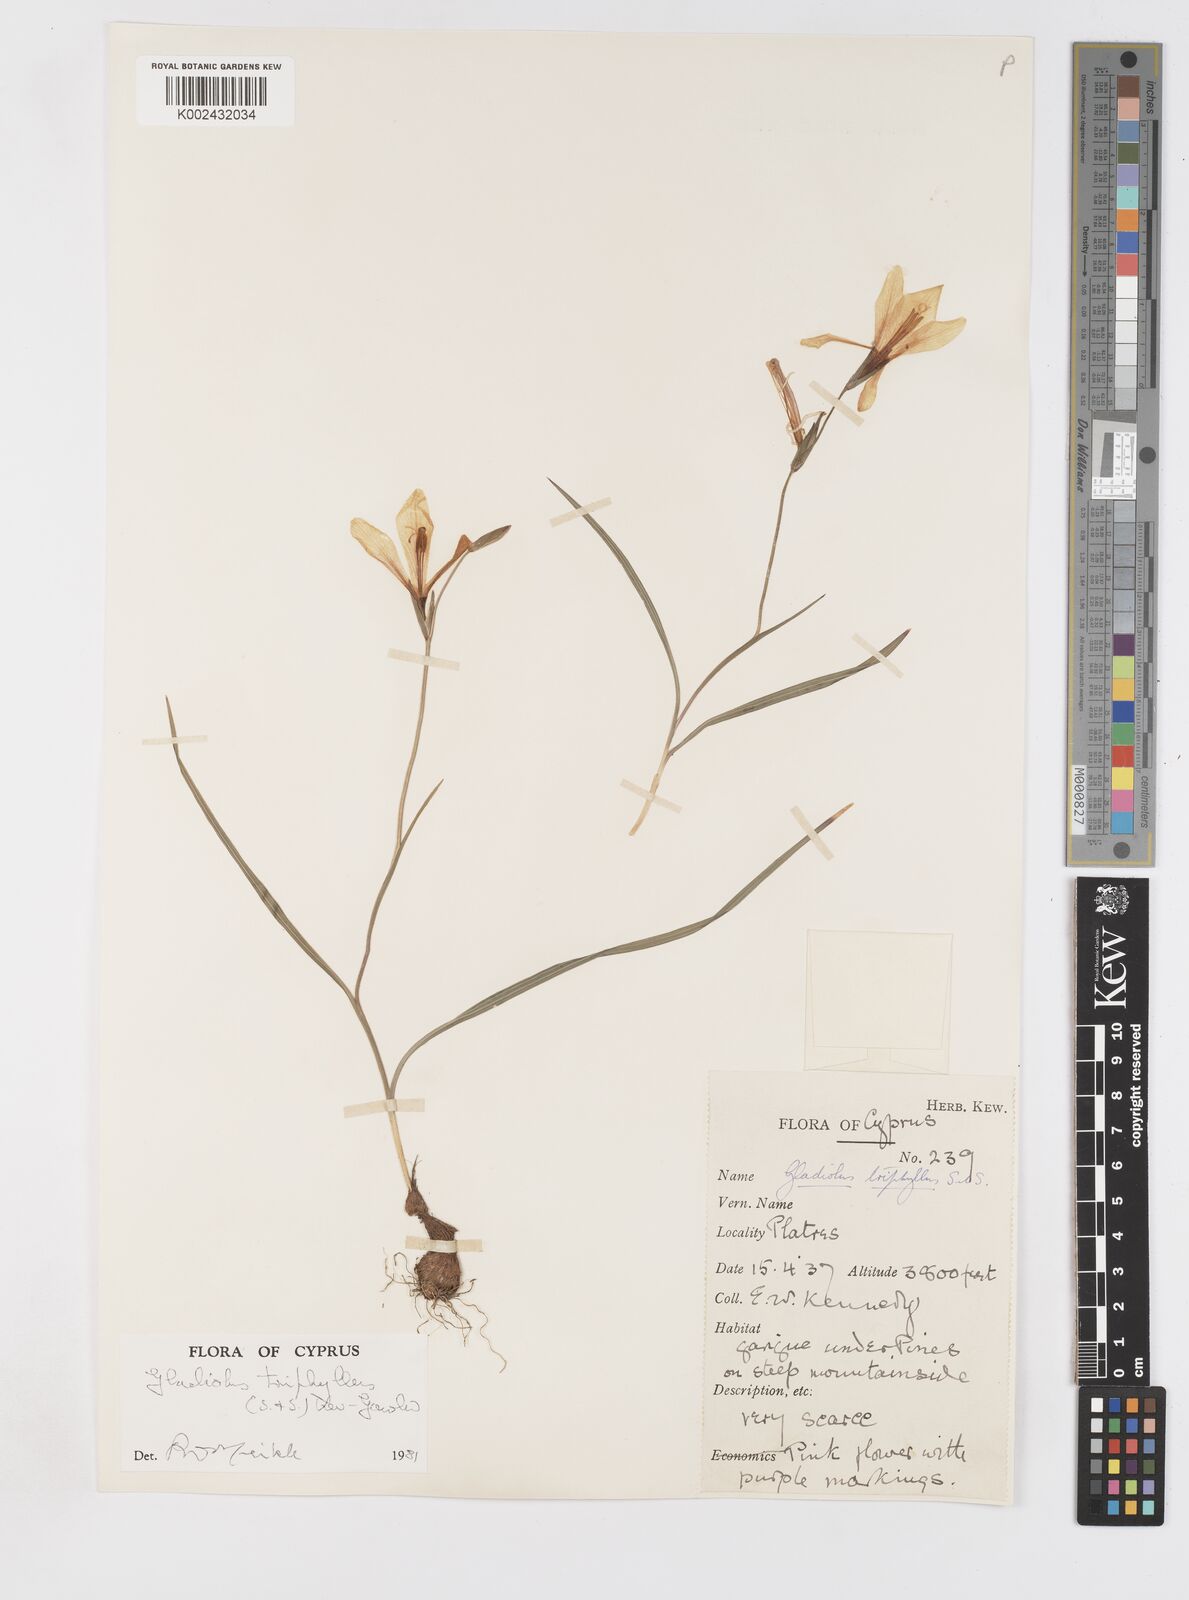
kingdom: Plantae
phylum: Tracheophyta
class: Liliopsida
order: Asparagales
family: Iridaceae
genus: Gladiolus
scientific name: Gladiolus triphyllus
